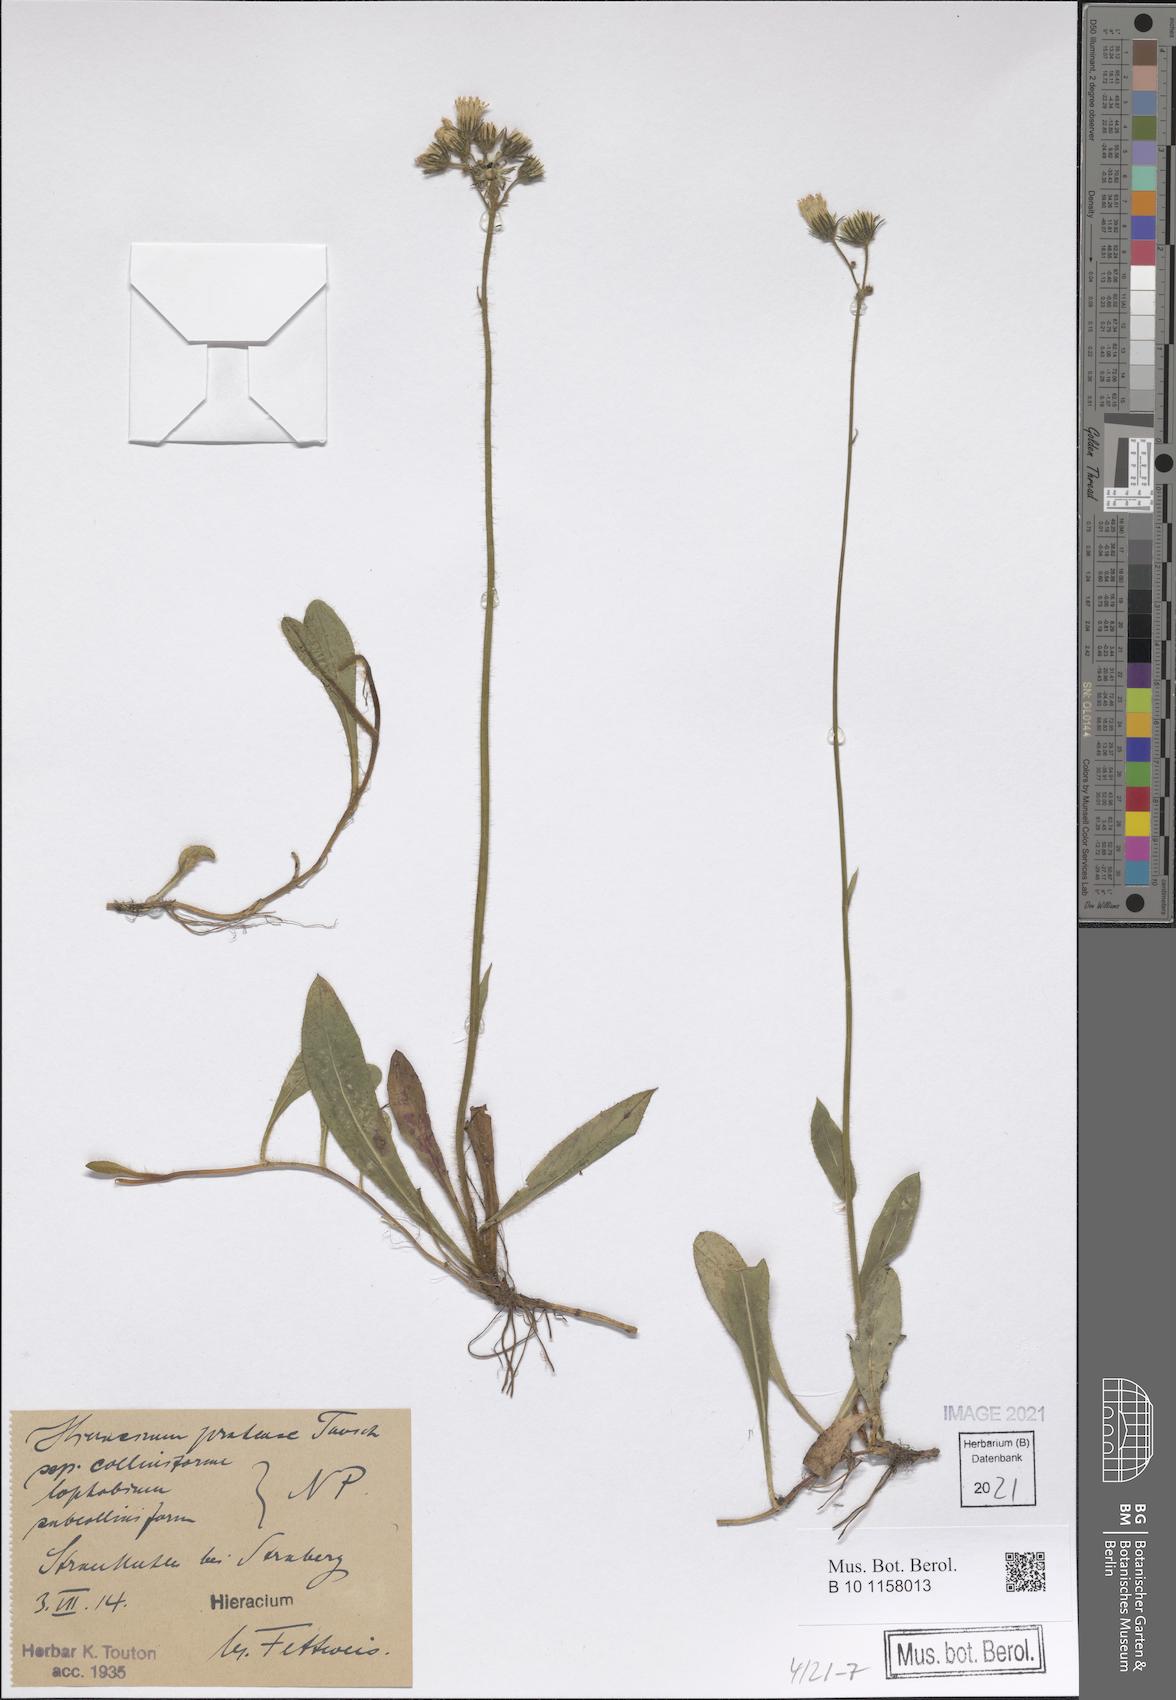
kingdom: Plantae
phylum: Tracheophyta
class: Magnoliopsida
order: Asterales
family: Asteraceae
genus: Pilosella
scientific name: Pilosella caespitosa
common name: Yellow fox-and-cubs
